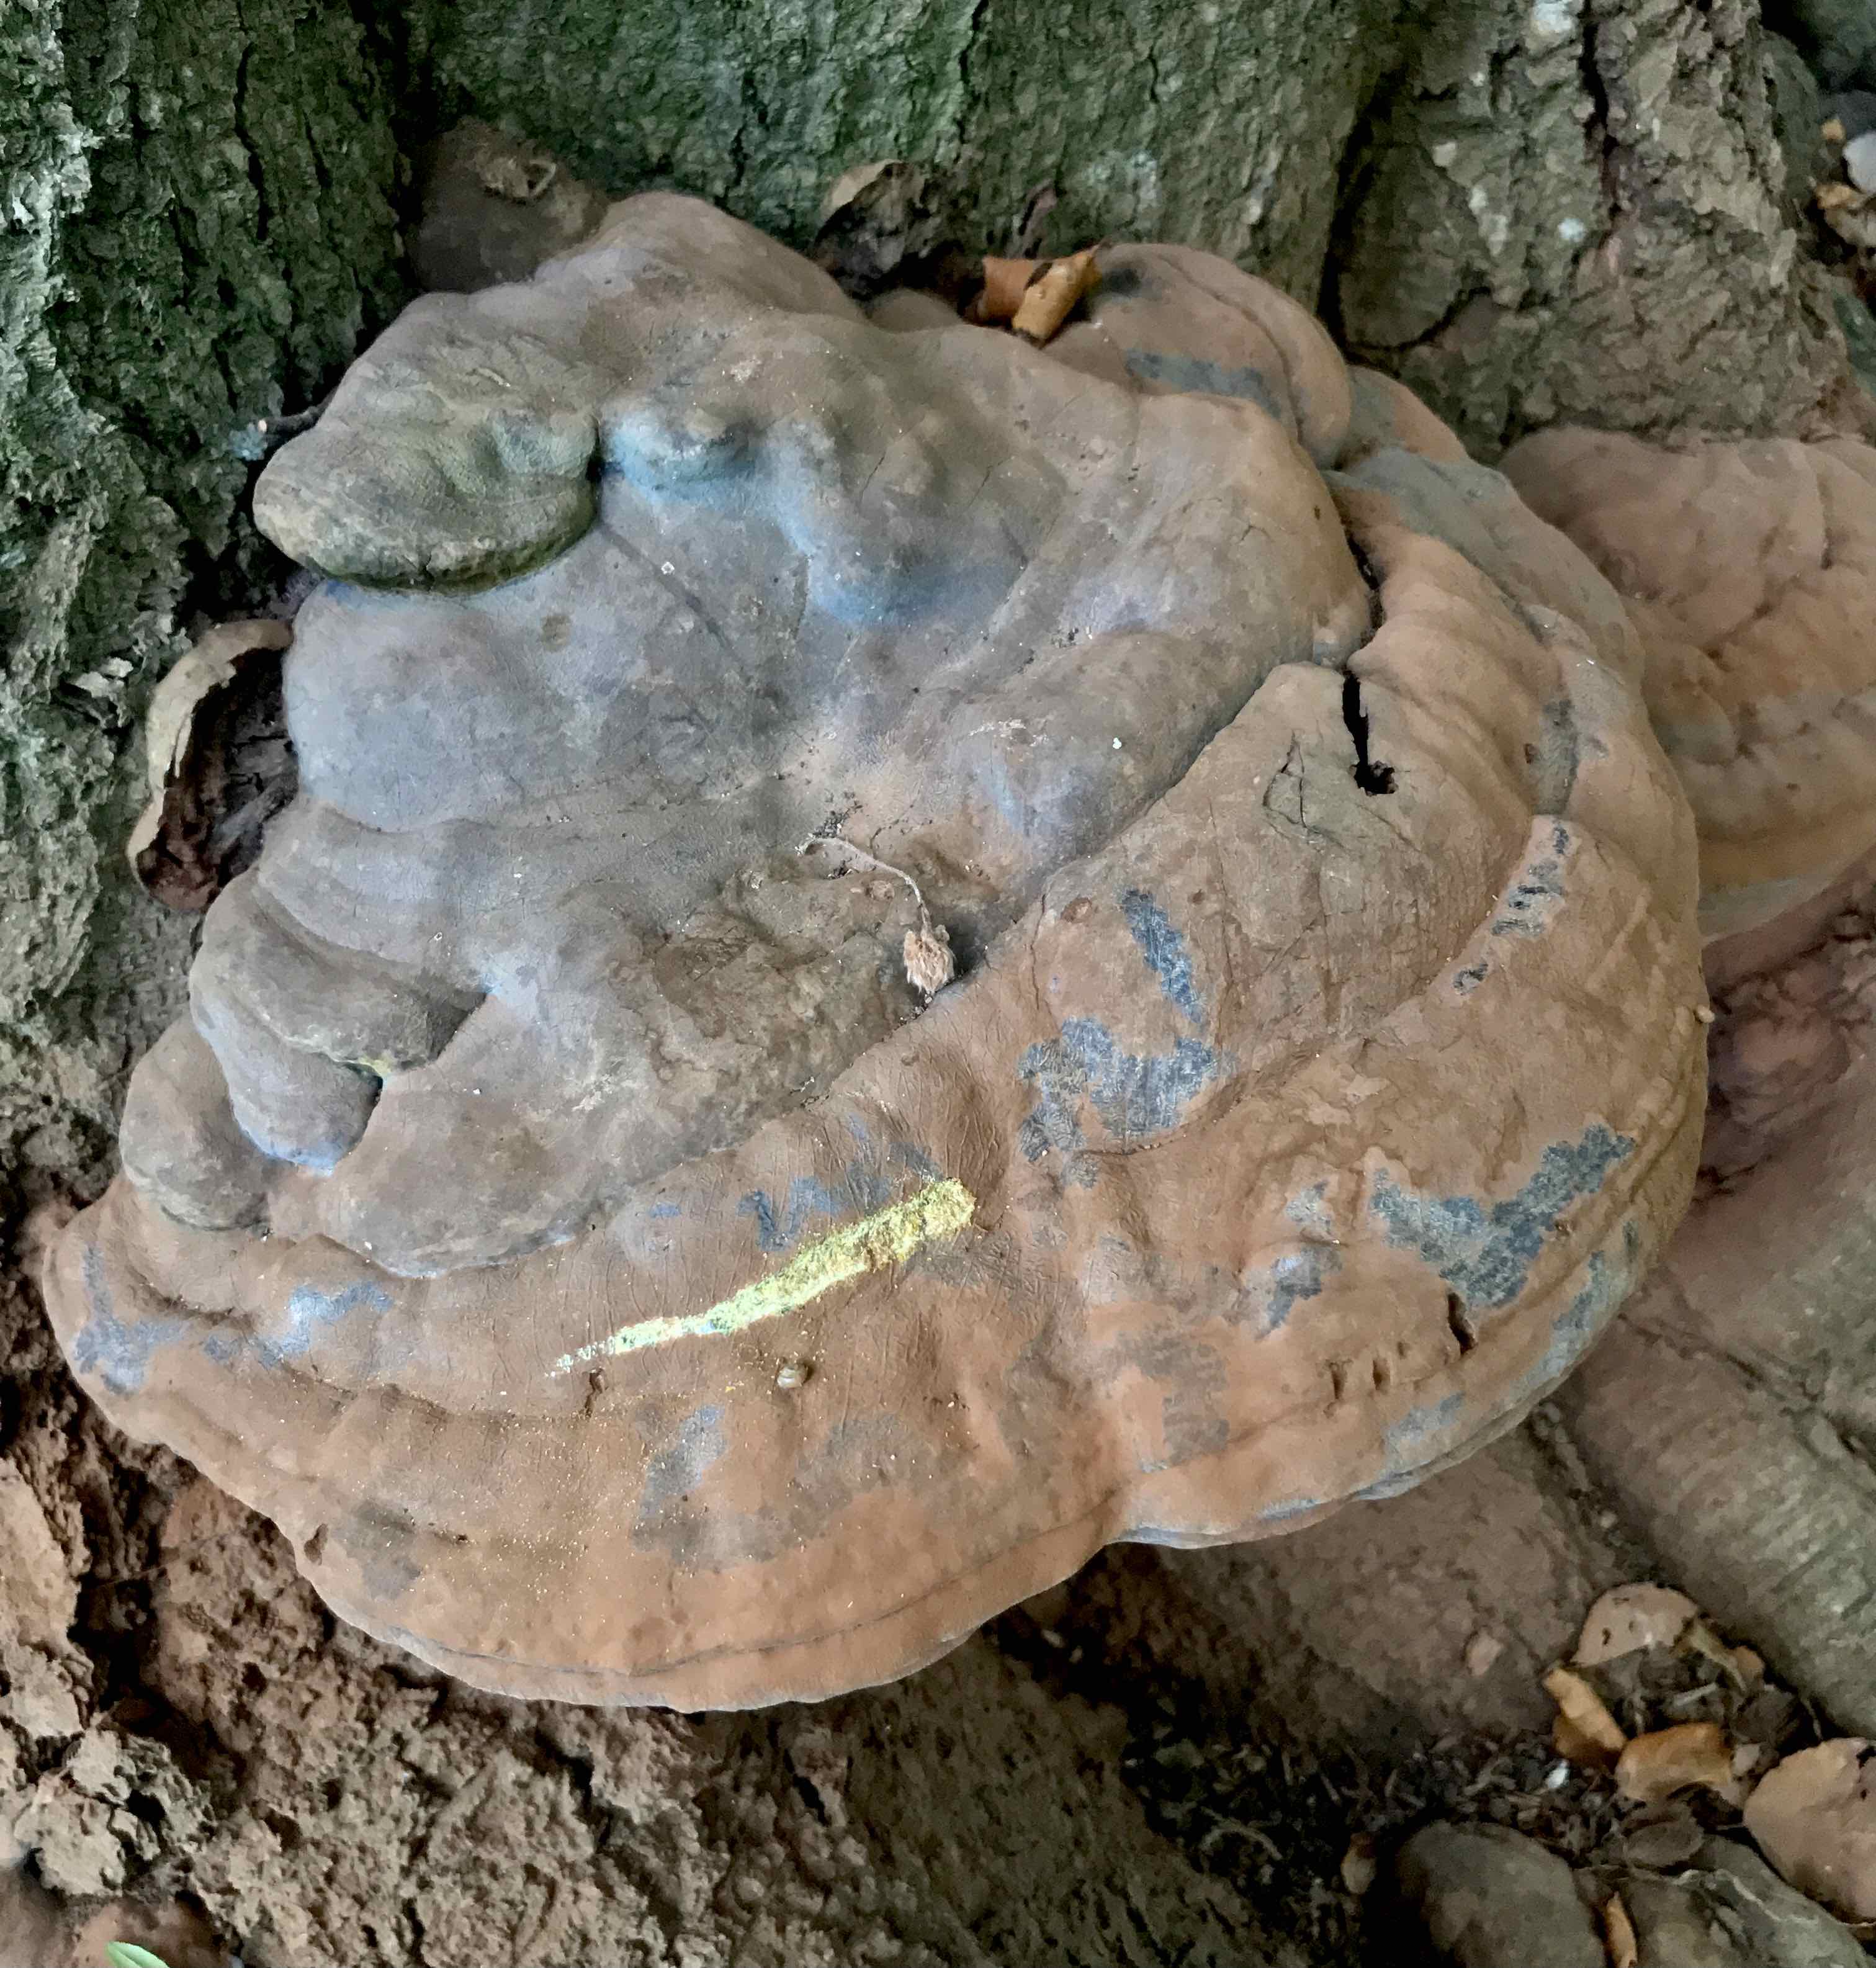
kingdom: Fungi
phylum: Basidiomycota
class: Agaricomycetes
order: Polyporales
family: Polyporaceae
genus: Ganoderma
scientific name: Ganoderma pfeifferi
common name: kobberrød lakporesvamp
